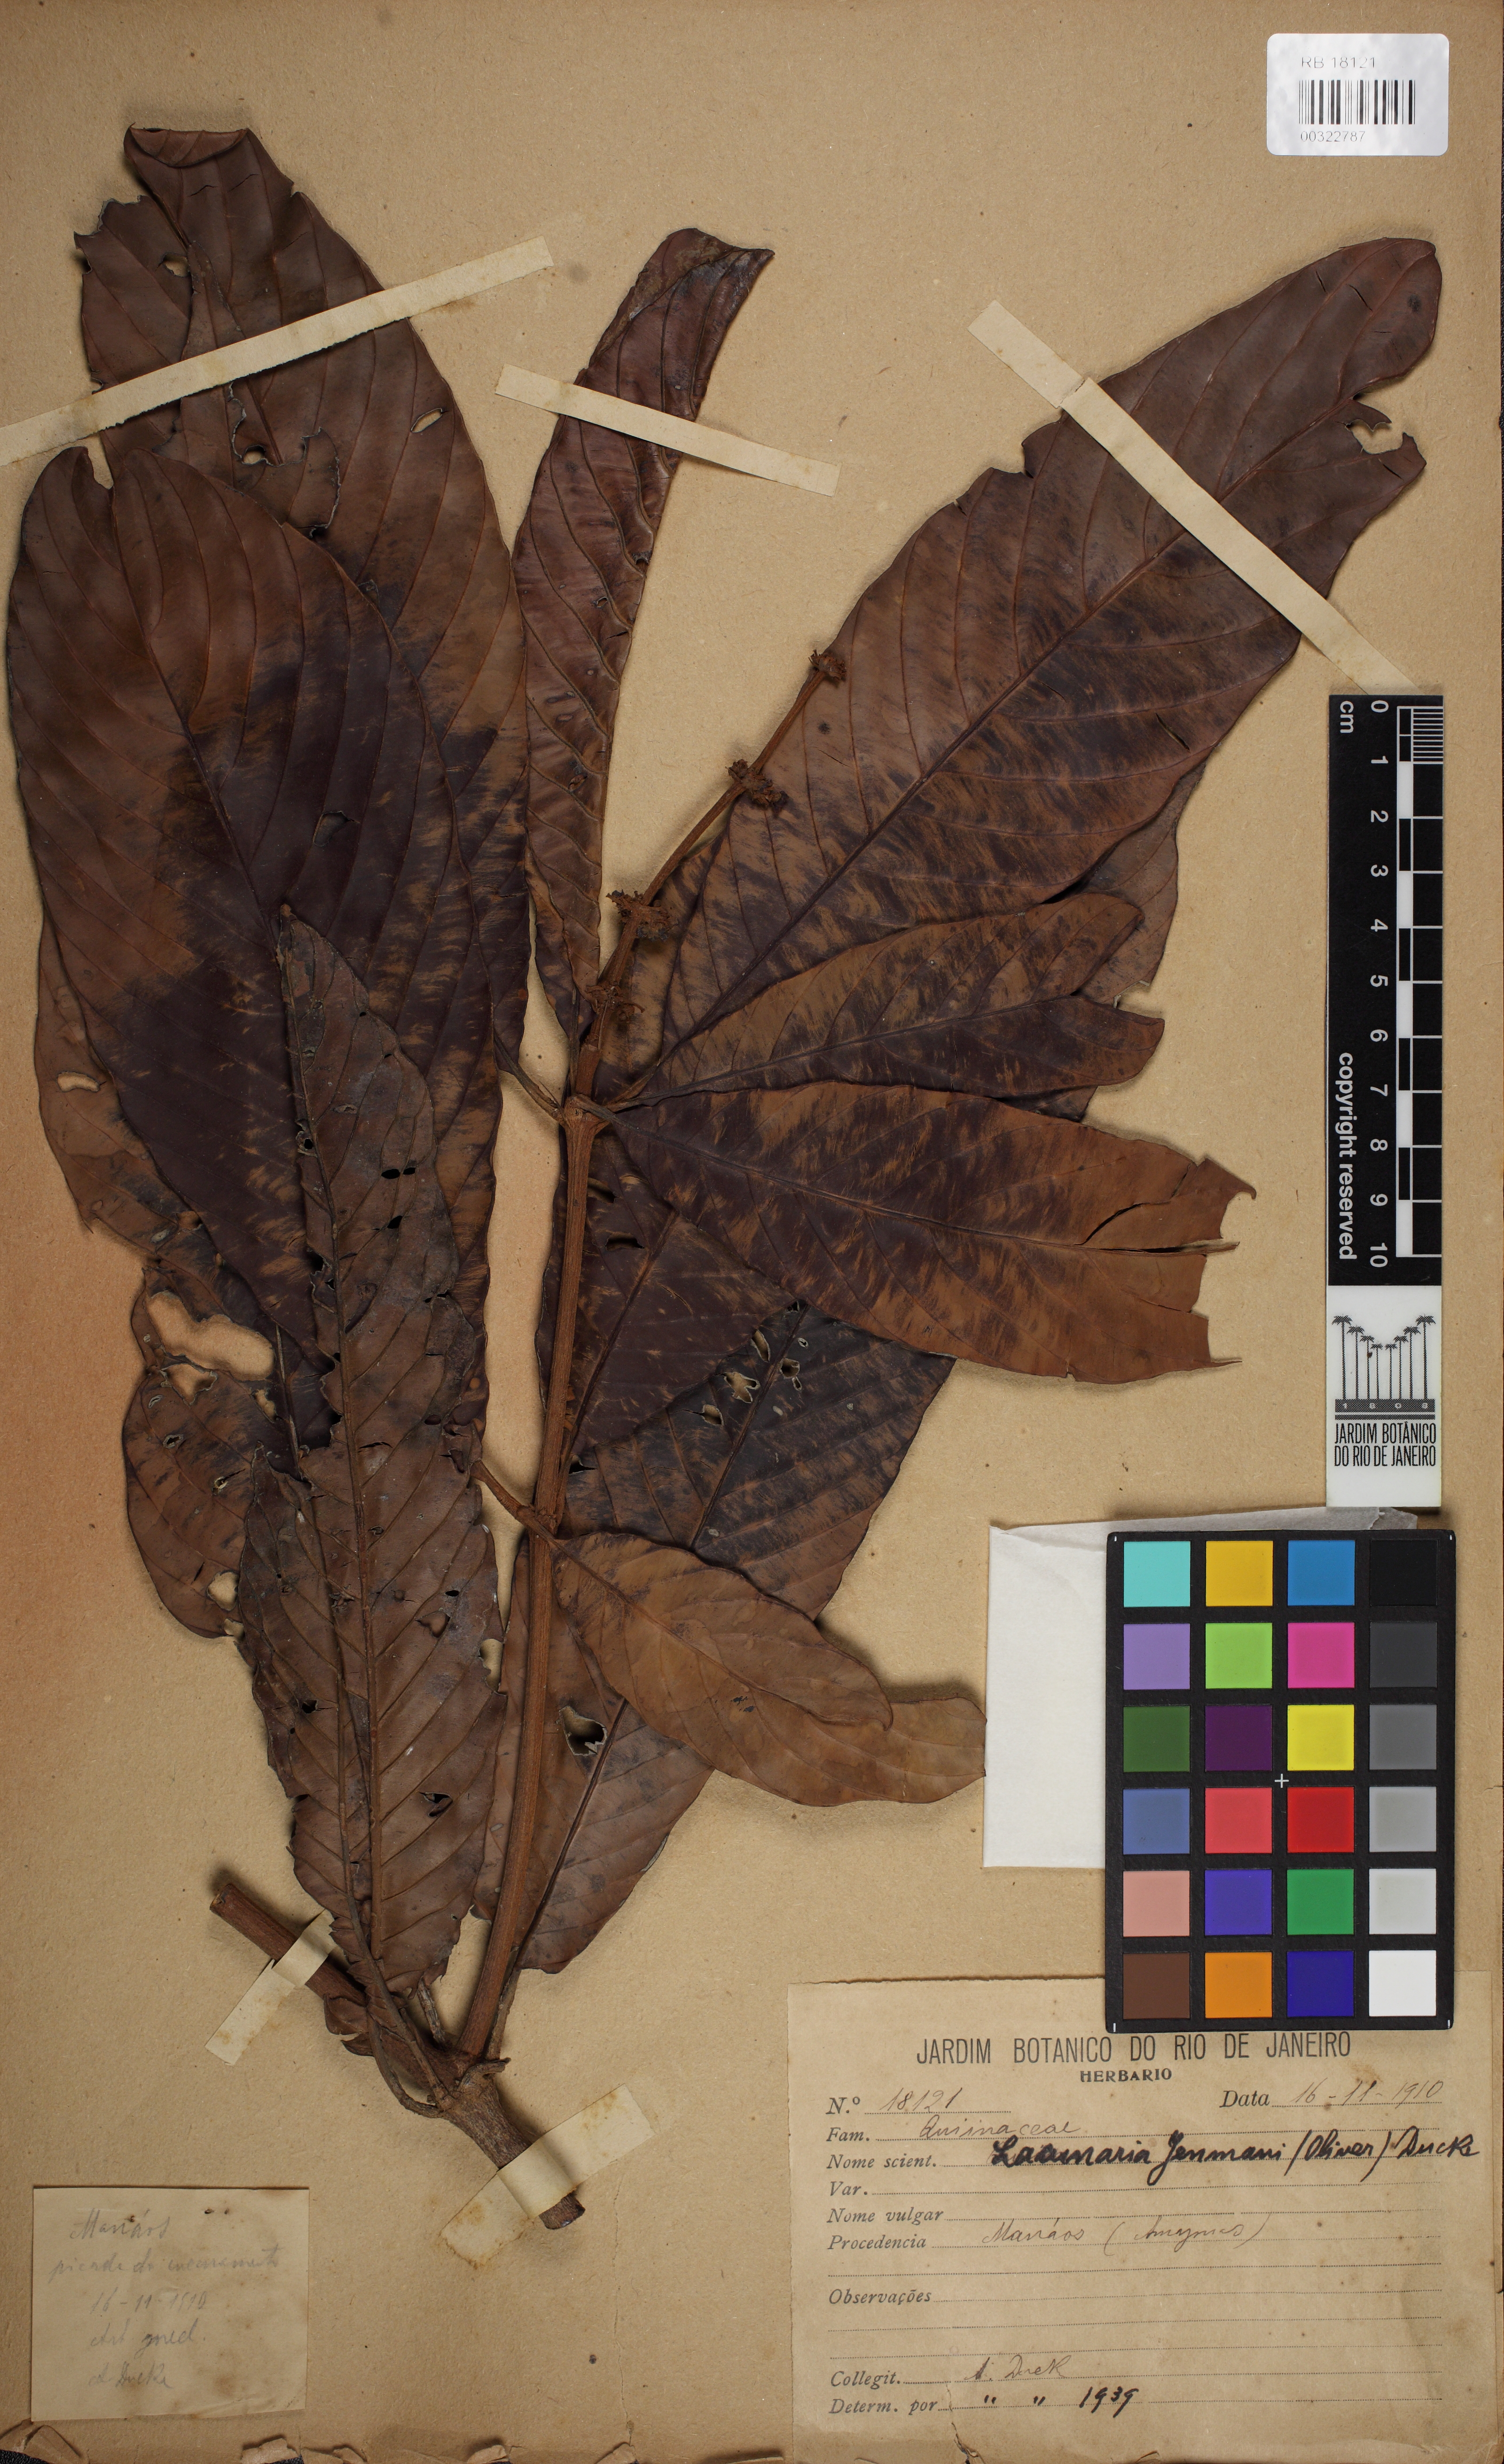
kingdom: Plantae
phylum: Tracheophyta
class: Magnoliopsida
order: Malpighiales
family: Quiinaceae
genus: Lacunaria
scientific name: Lacunaria jenmanii
